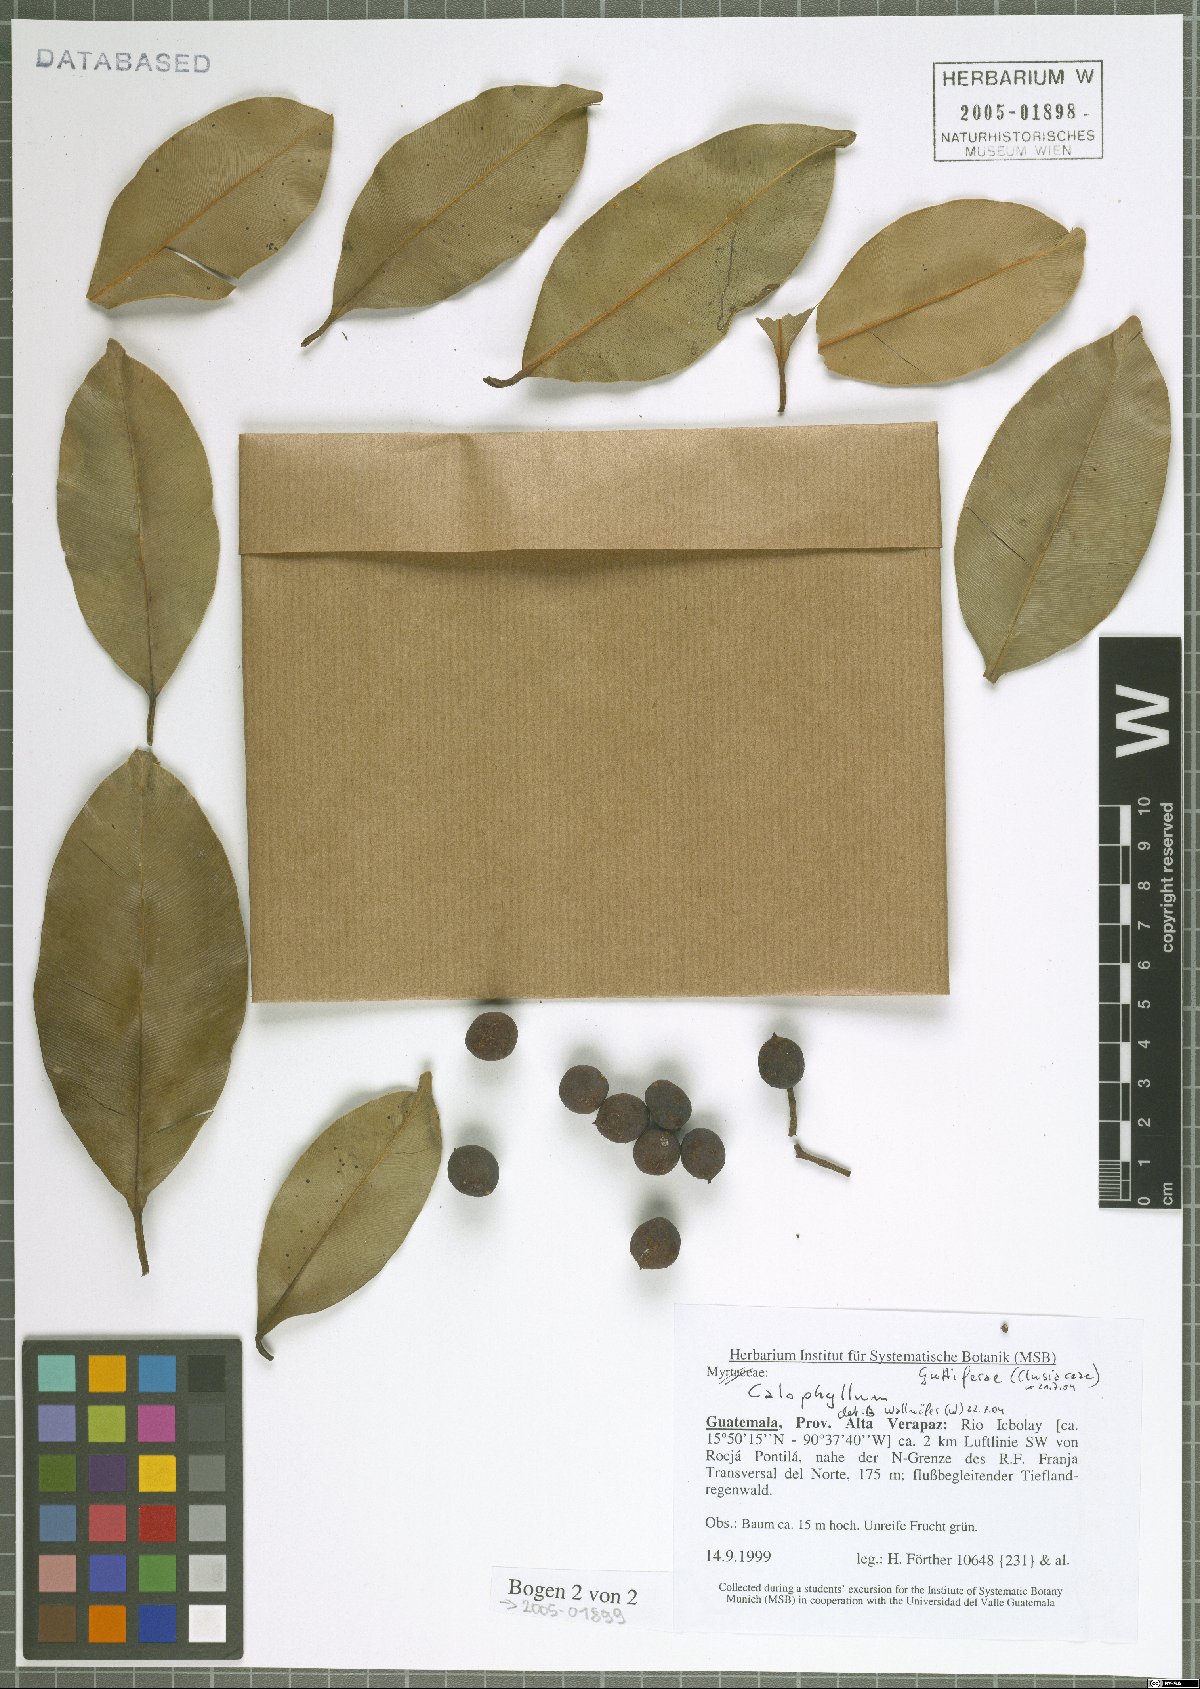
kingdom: Plantae
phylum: Tracheophyta
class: Magnoliopsida
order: Malpighiales
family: Calophyllaceae
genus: Calophyllum
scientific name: Calophyllum
